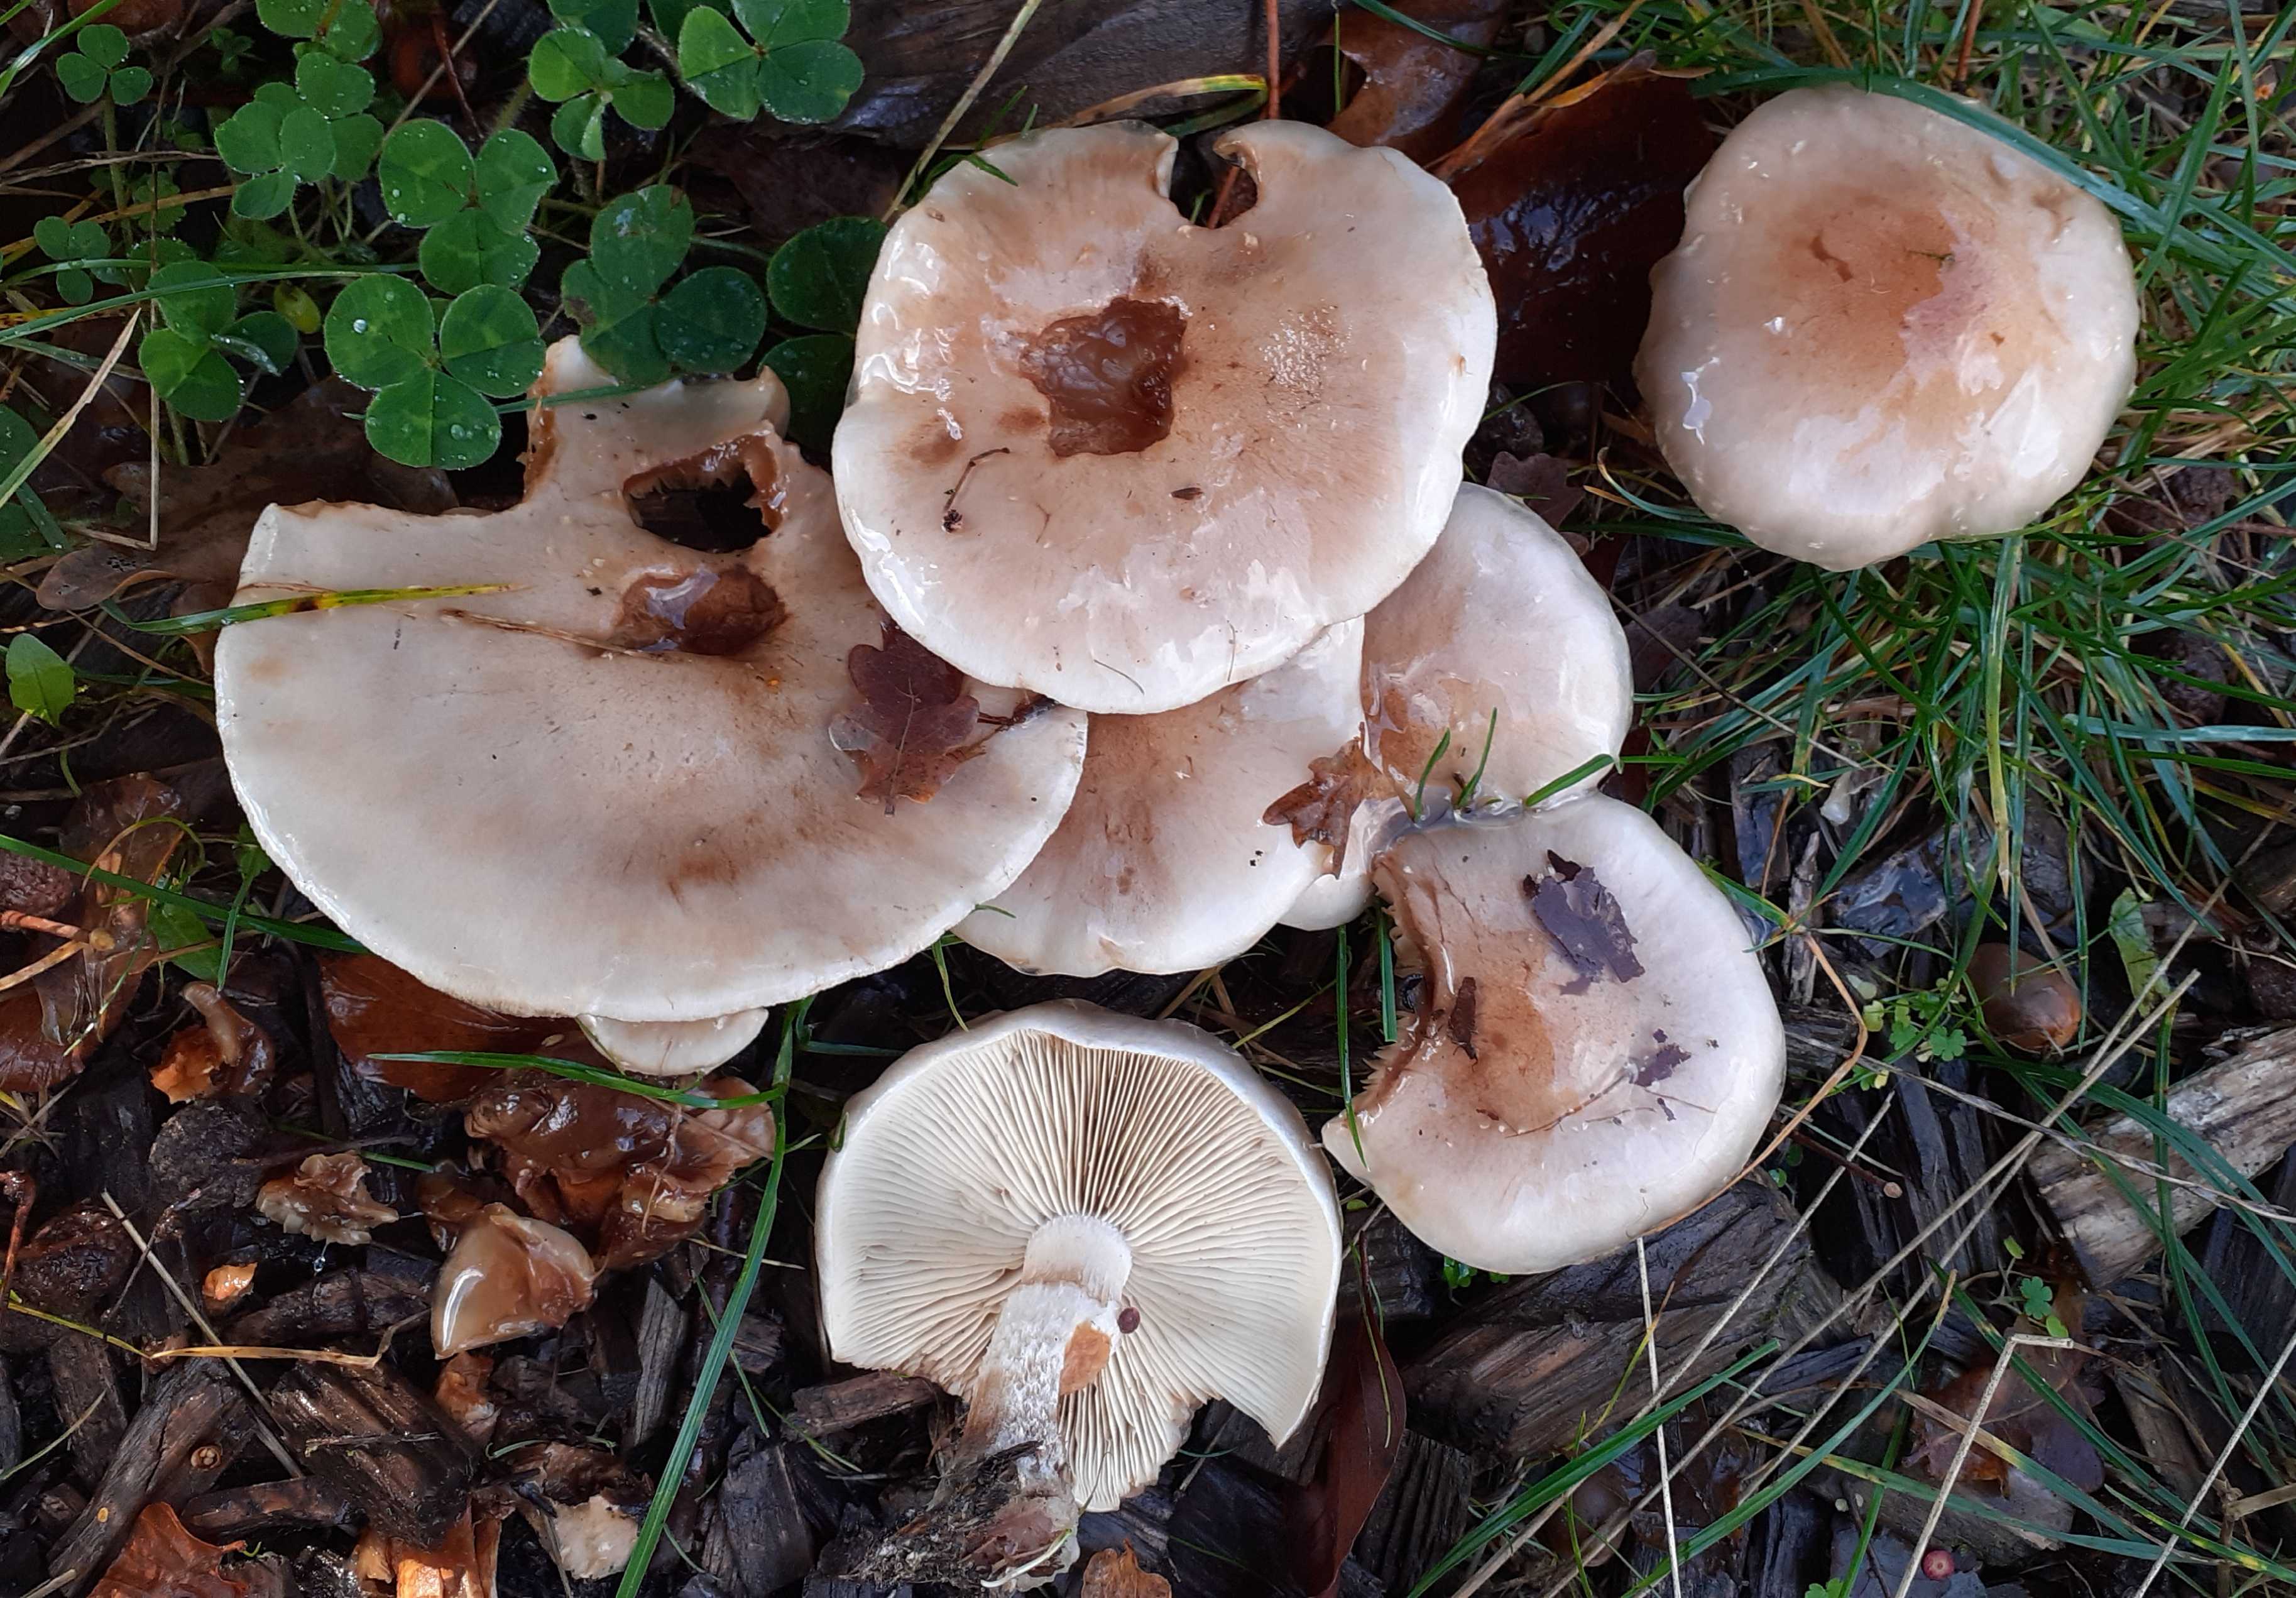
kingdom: Fungi
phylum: Basidiomycota
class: Agaricomycetes
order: Agaricales
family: Strophariaceae
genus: Pholiota
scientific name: Pholiota lenta
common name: løv-skælhat
